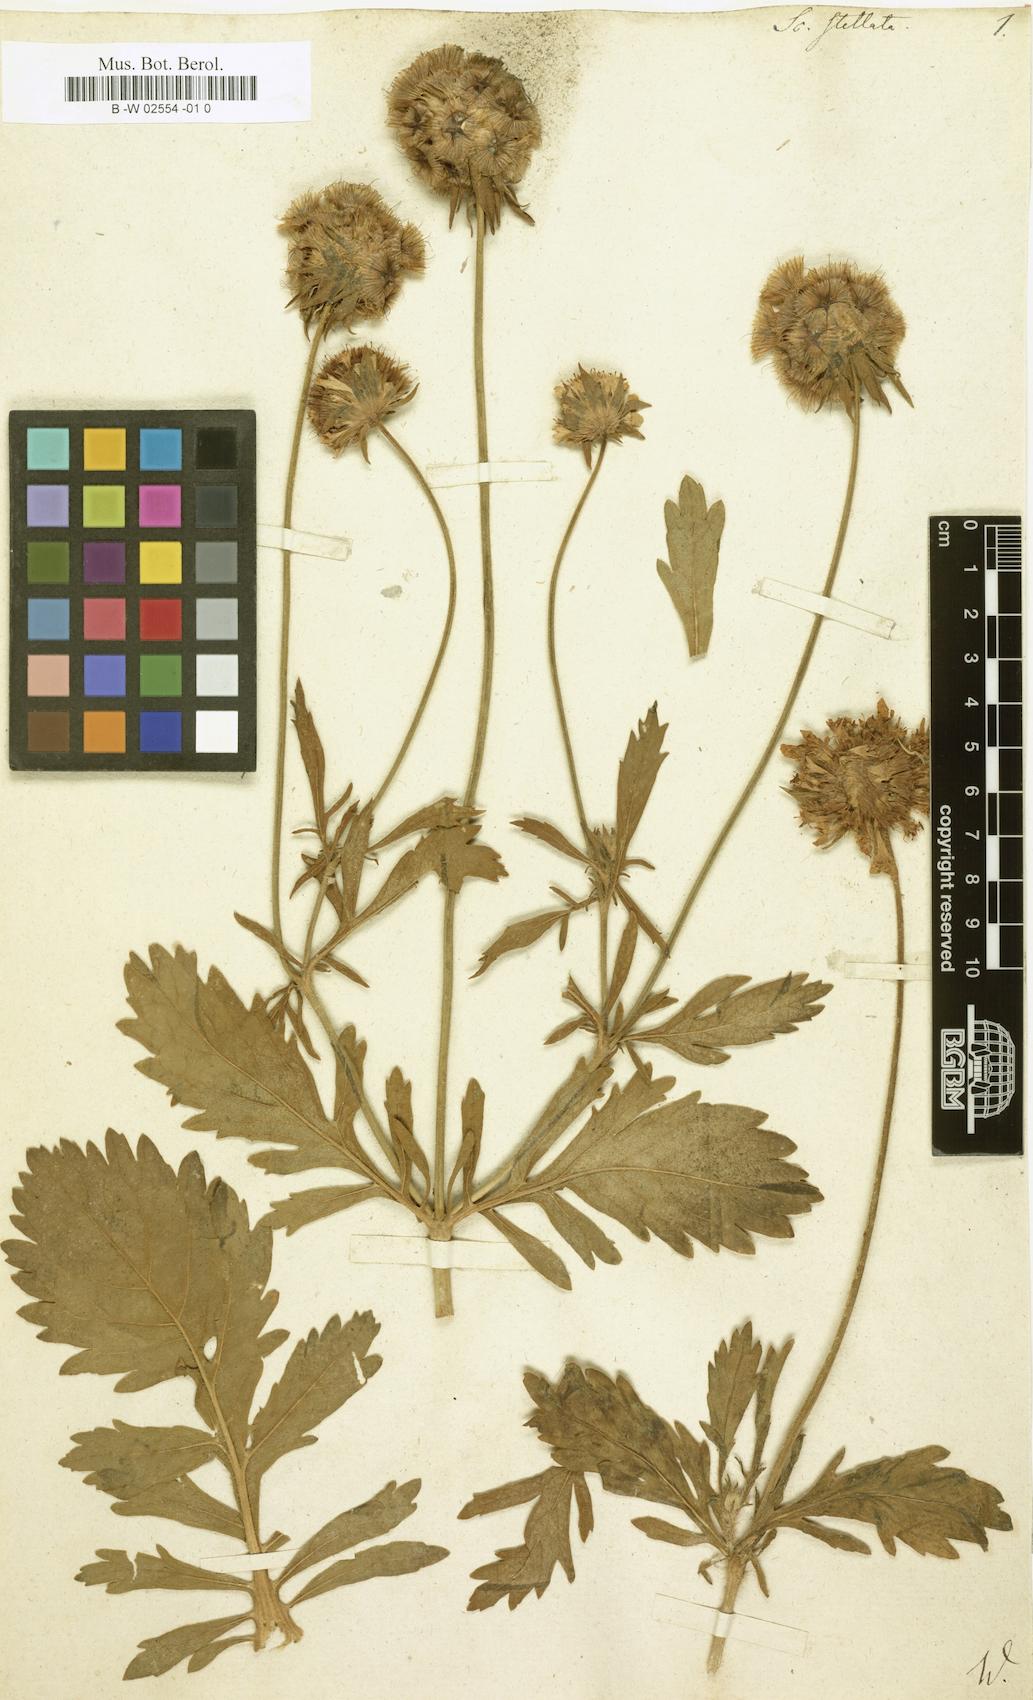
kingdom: Plantae
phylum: Tracheophyta
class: Magnoliopsida
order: Dipsacales
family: Caprifoliaceae
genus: Lomelosia
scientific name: Lomelosia stellata
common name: Teasel
